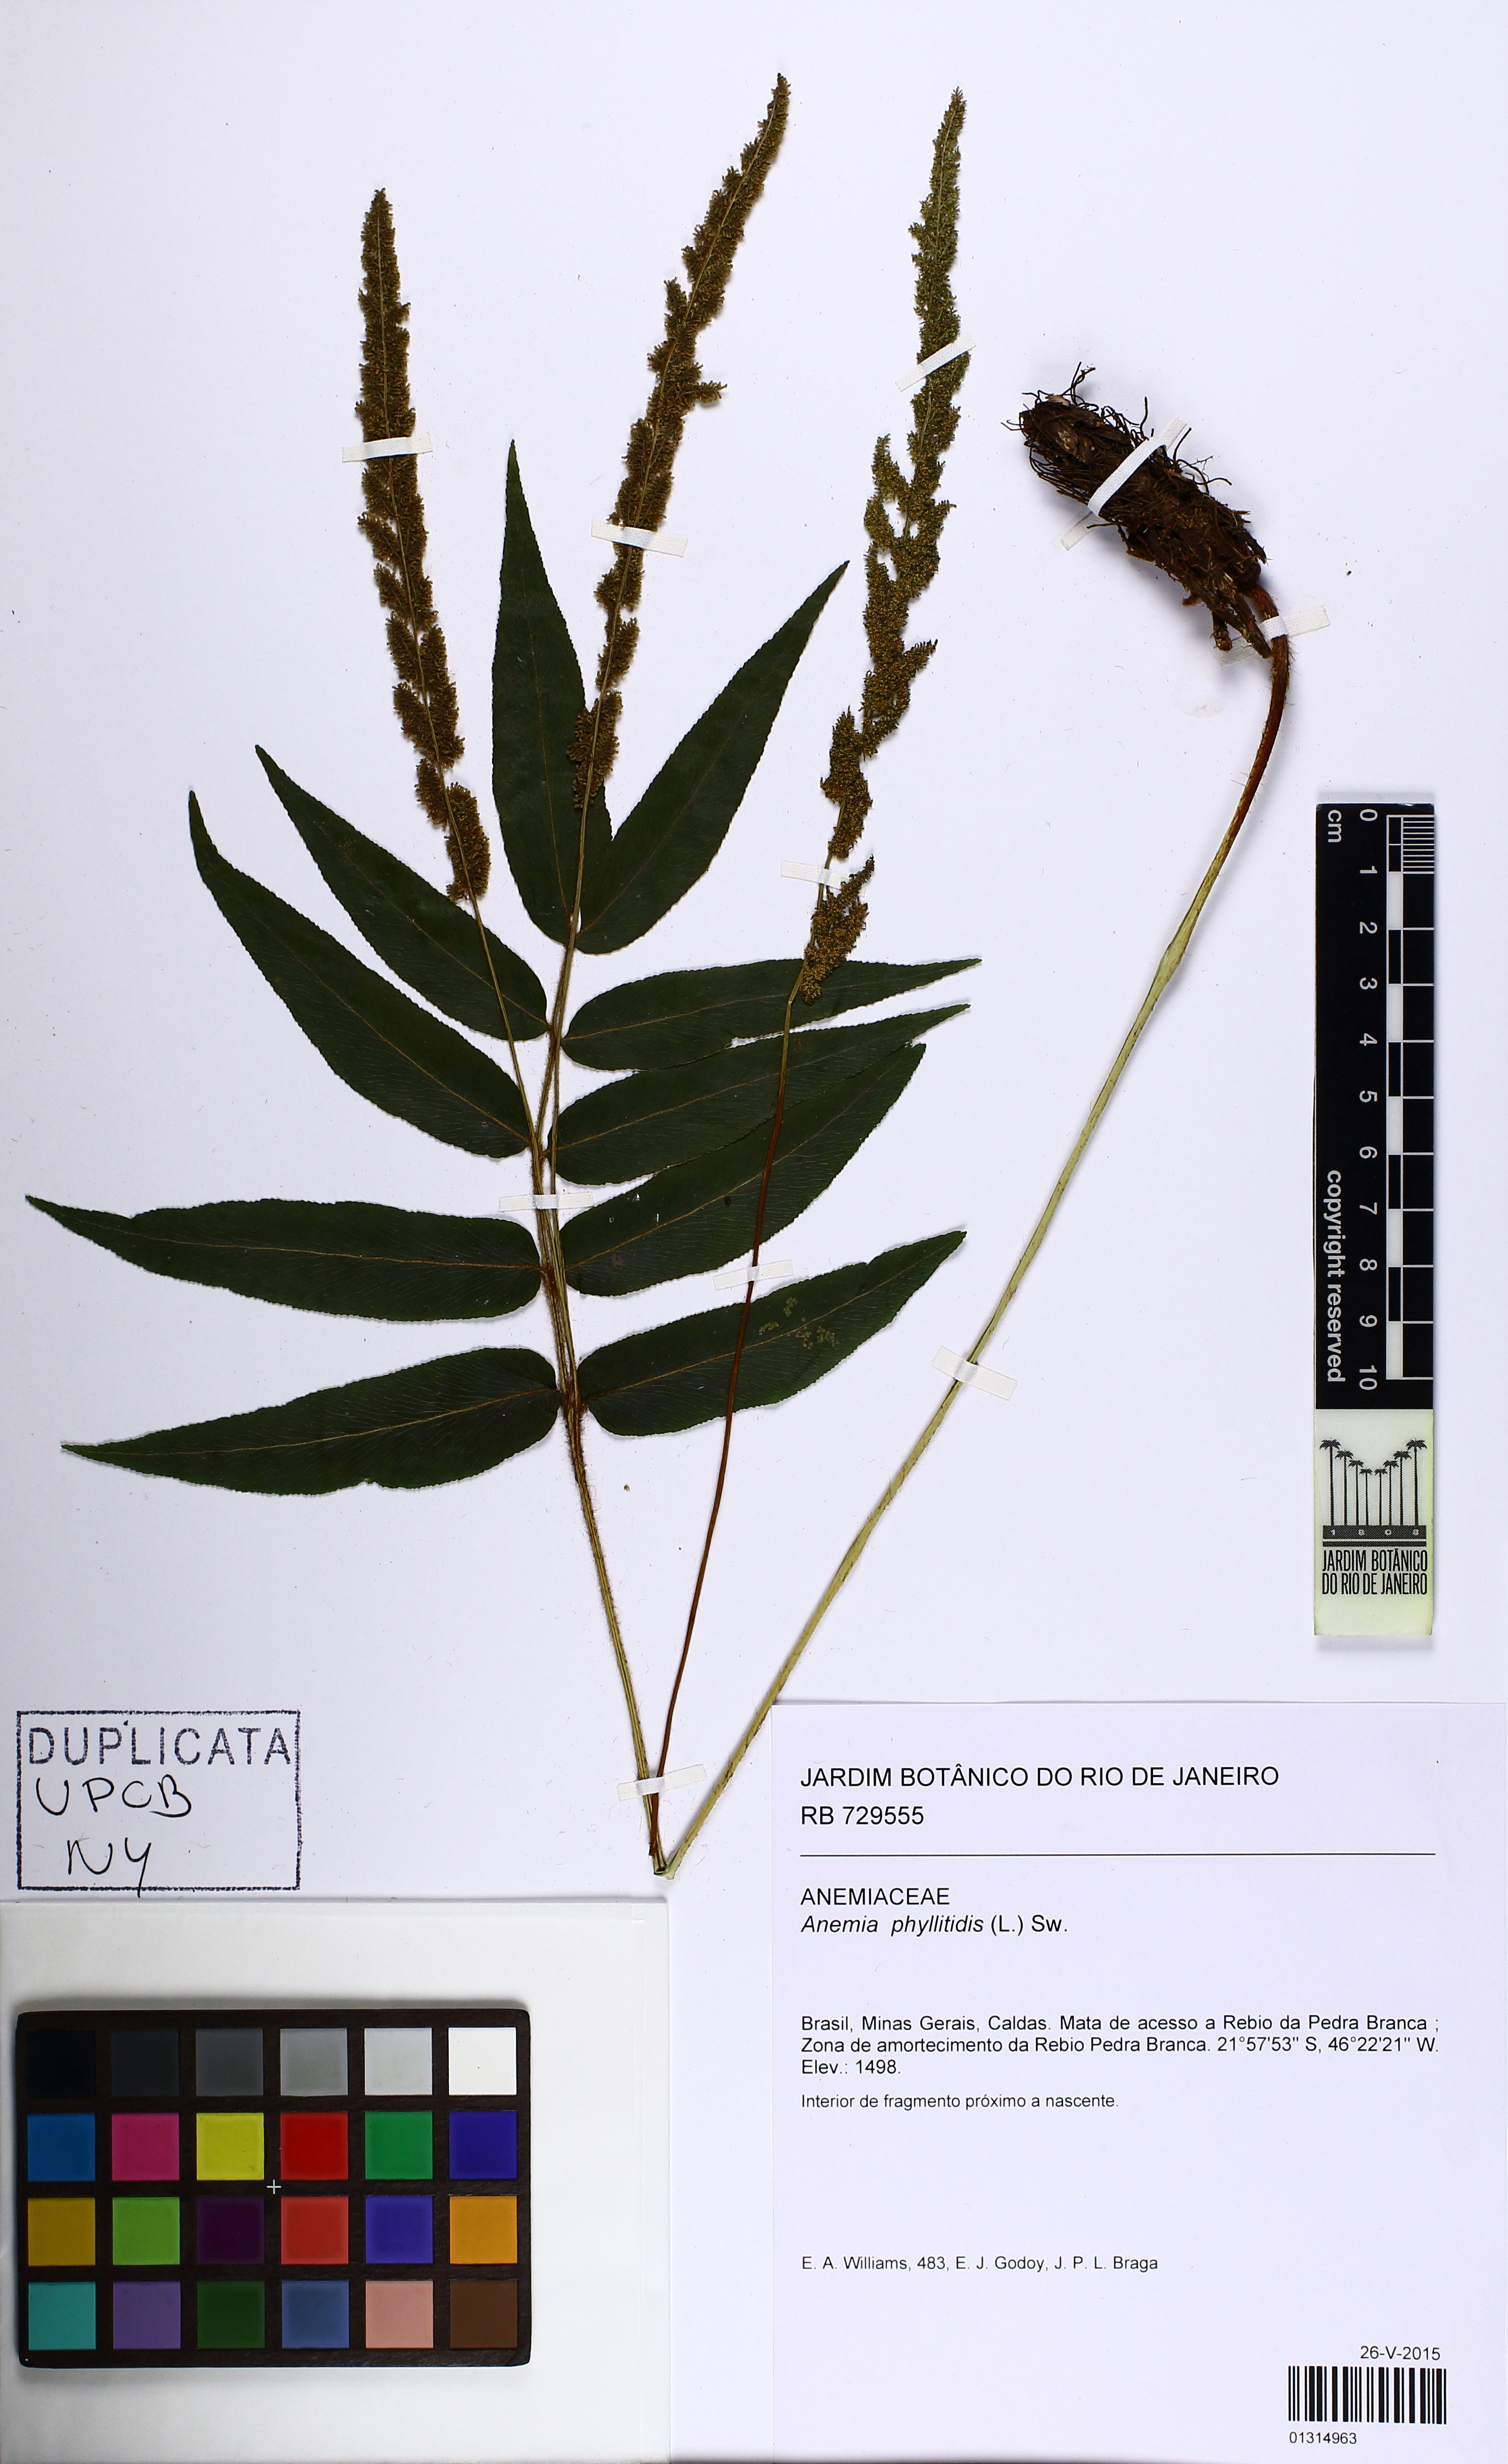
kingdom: Plantae
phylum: Tracheophyta
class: Polypodiopsida
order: Schizaeales
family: Anemiaceae
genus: Anemia
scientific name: Anemia phyllitidis
